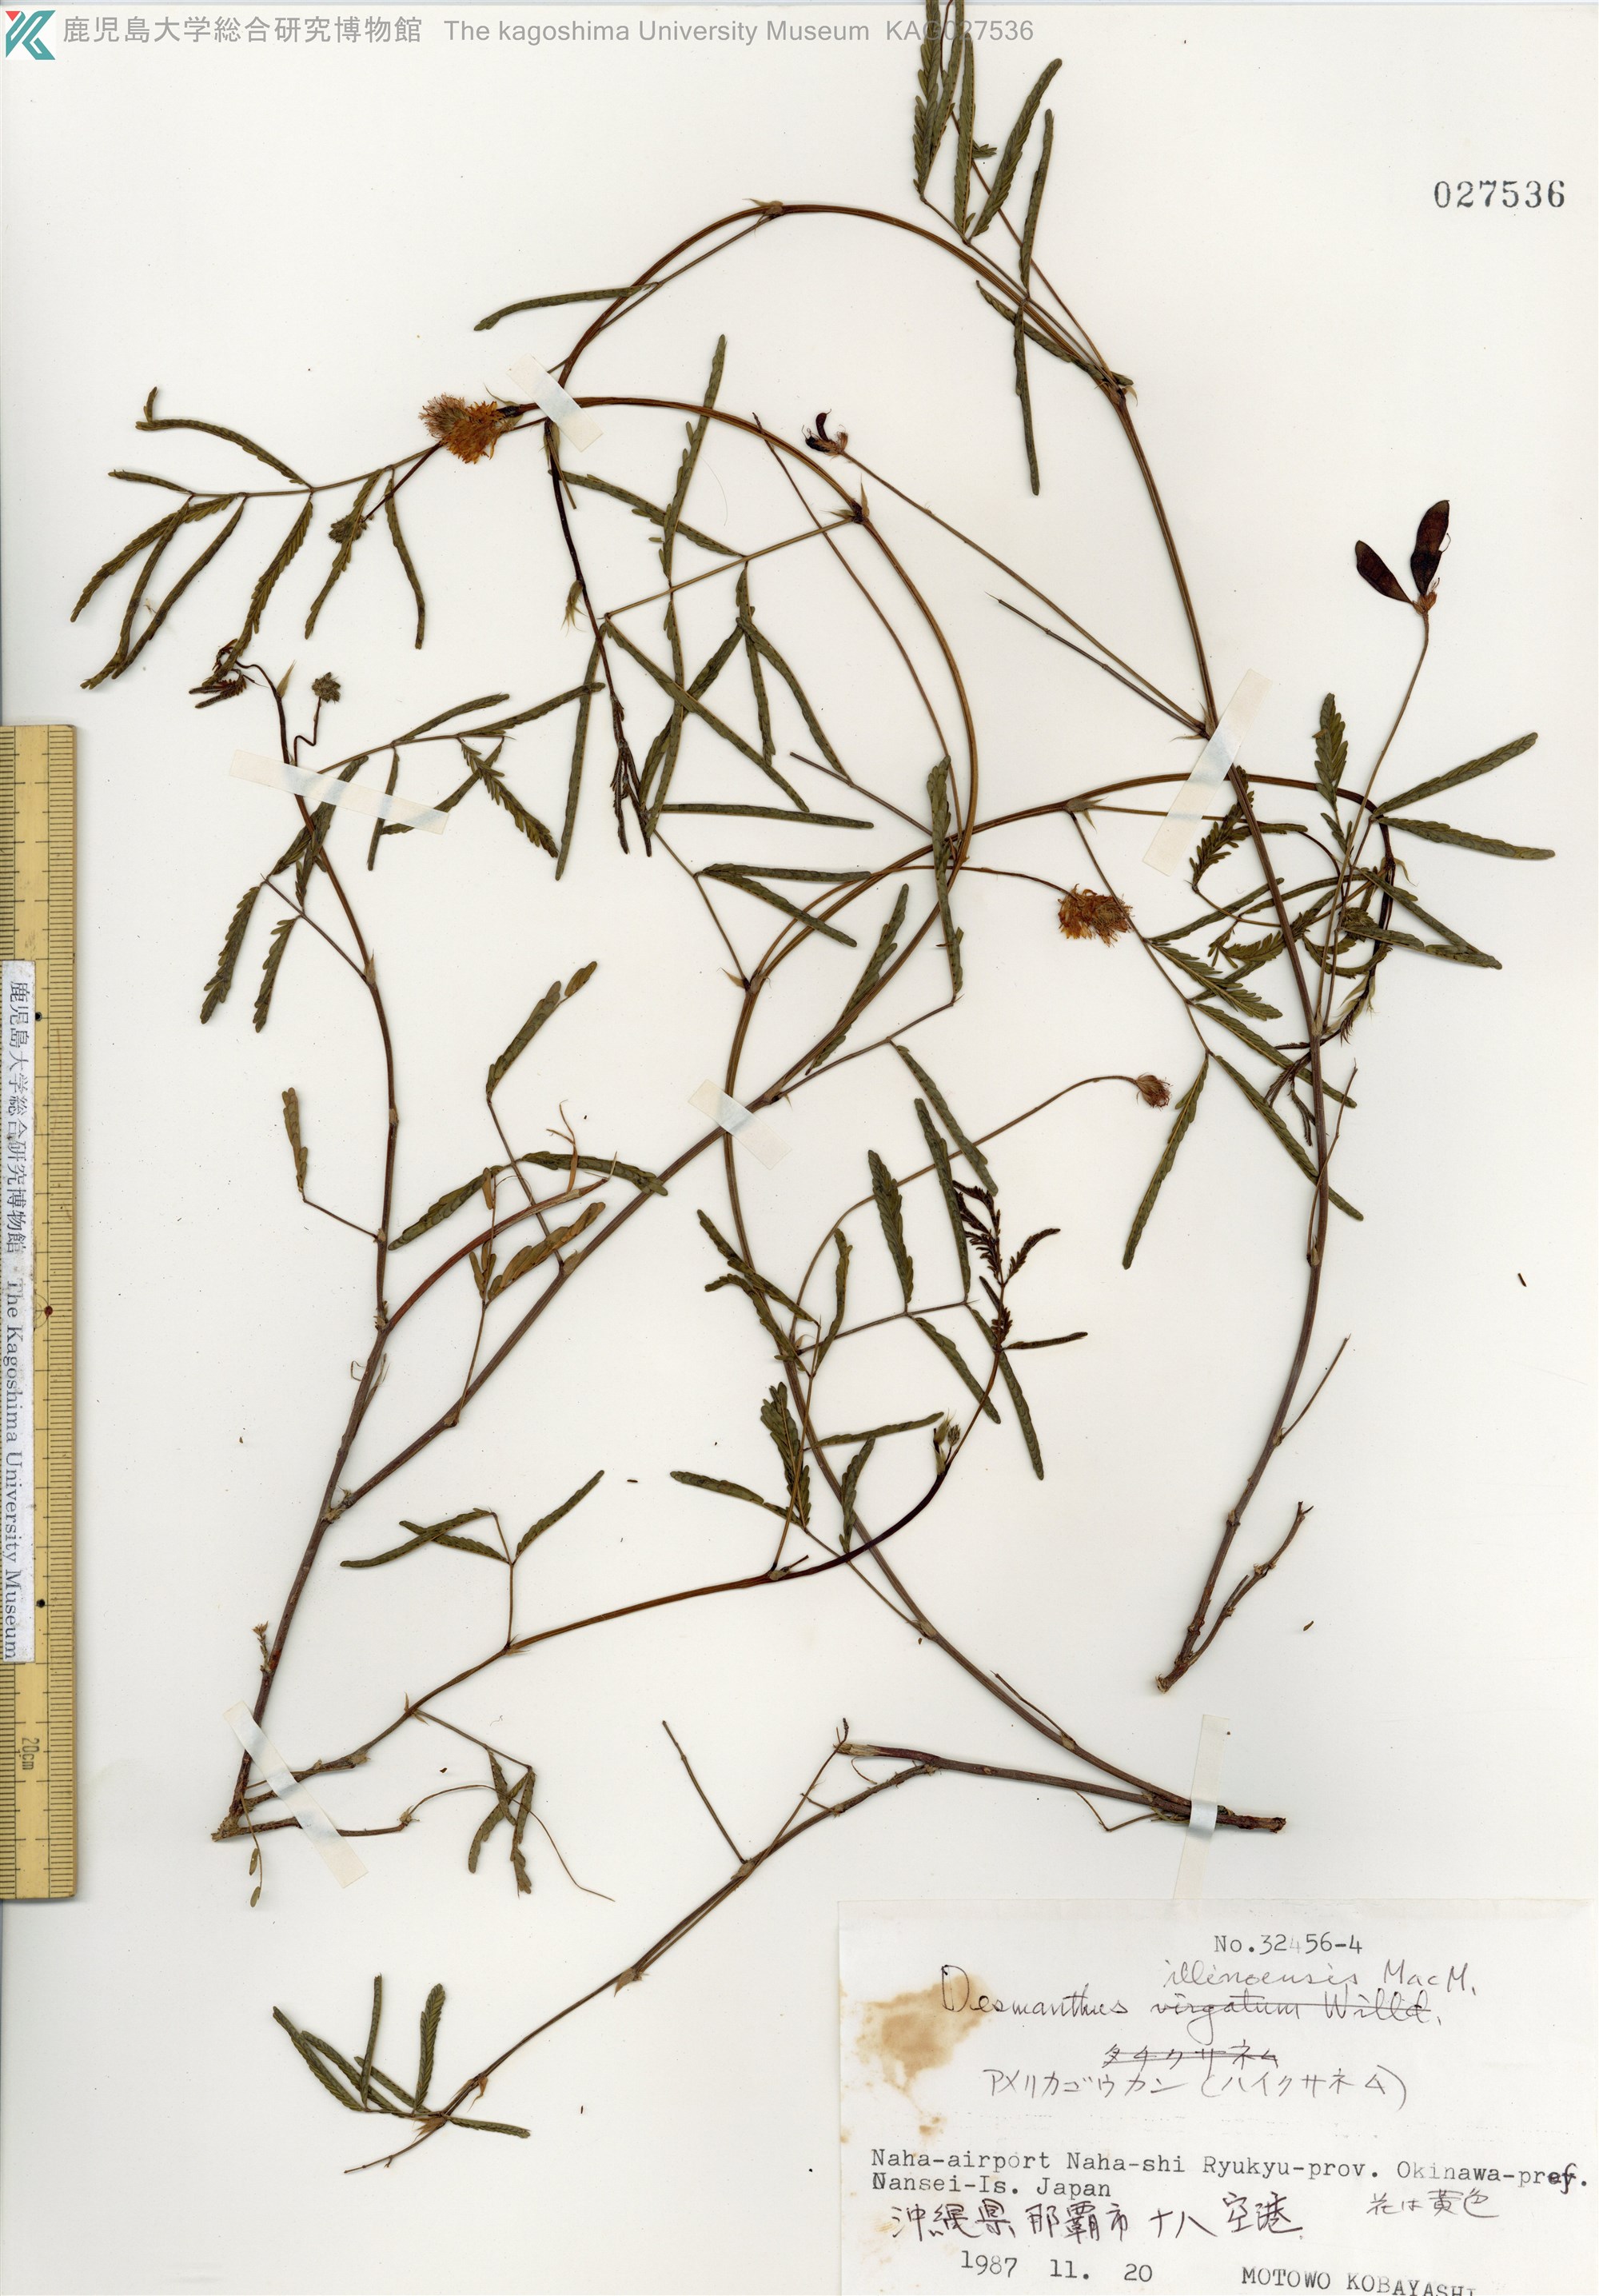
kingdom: Plantae
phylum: Tracheophyta
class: Magnoliopsida
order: Fabales
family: Fabaceae
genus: Desmanthus
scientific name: Desmanthus illinoensis
